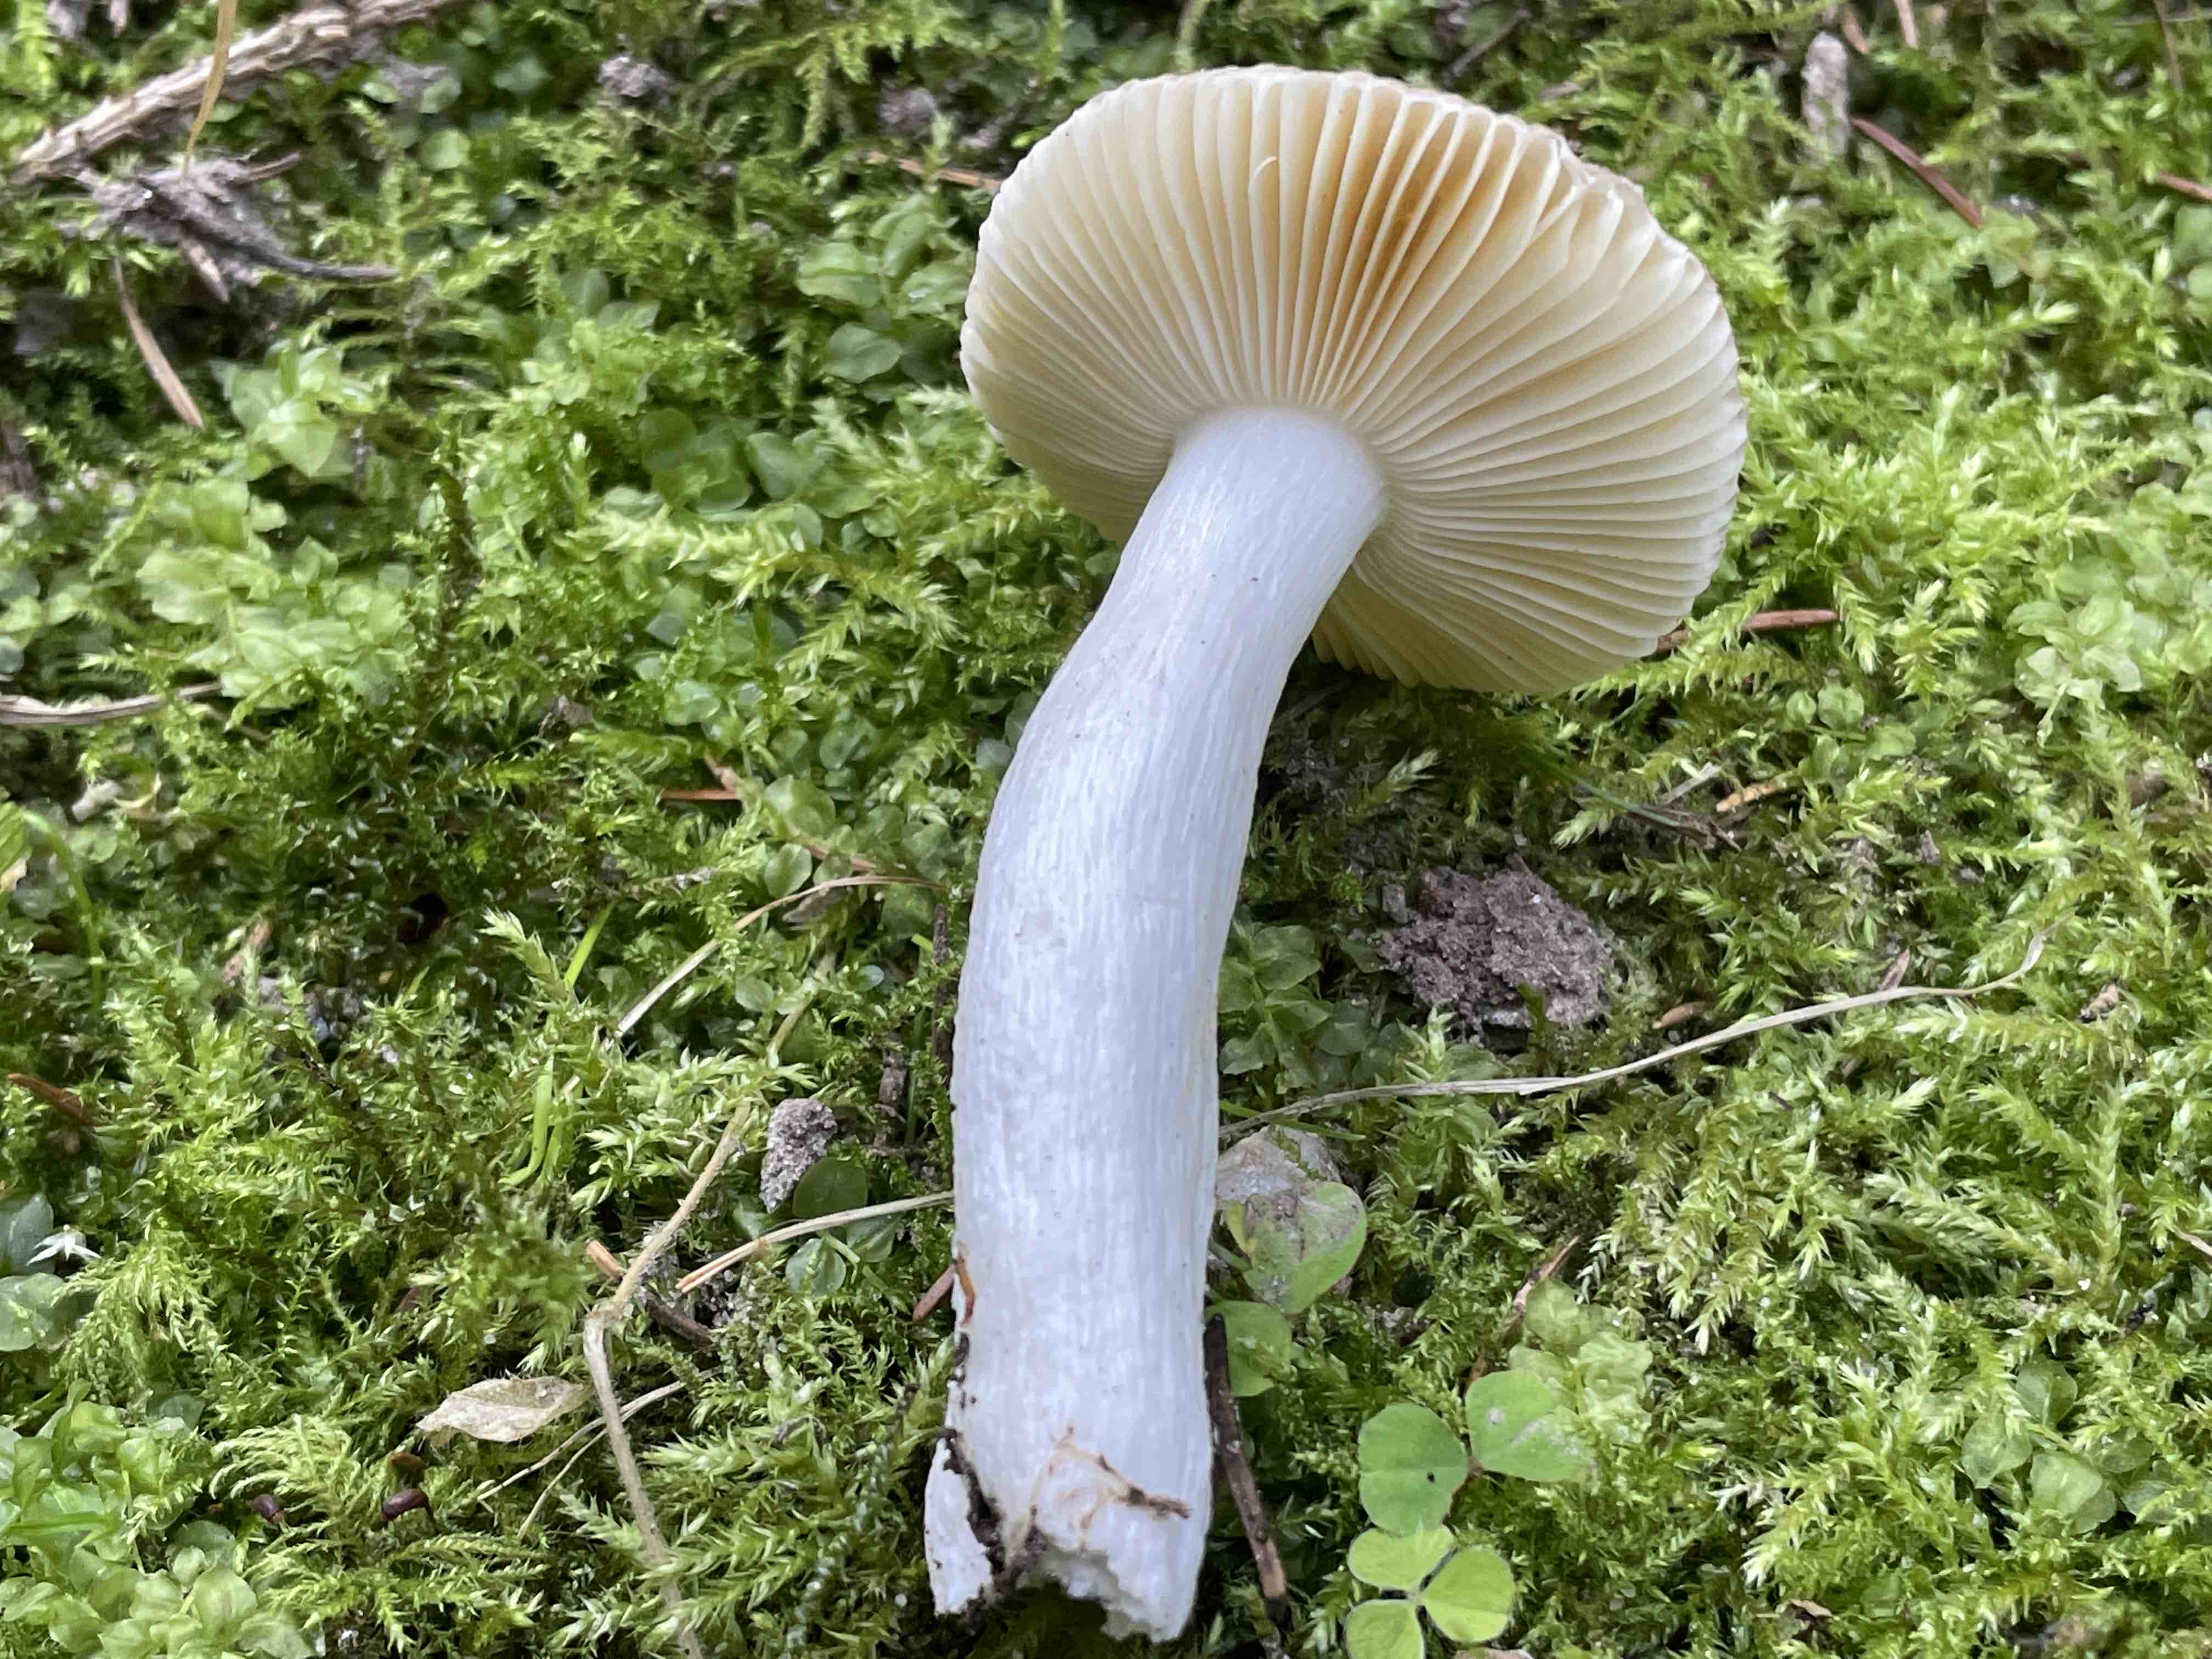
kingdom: Fungi
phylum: Basidiomycota
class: Agaricomycetes
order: Russulales
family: Russulaceae
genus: Russula
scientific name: Russula nauseosa
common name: spinkel skørhat
